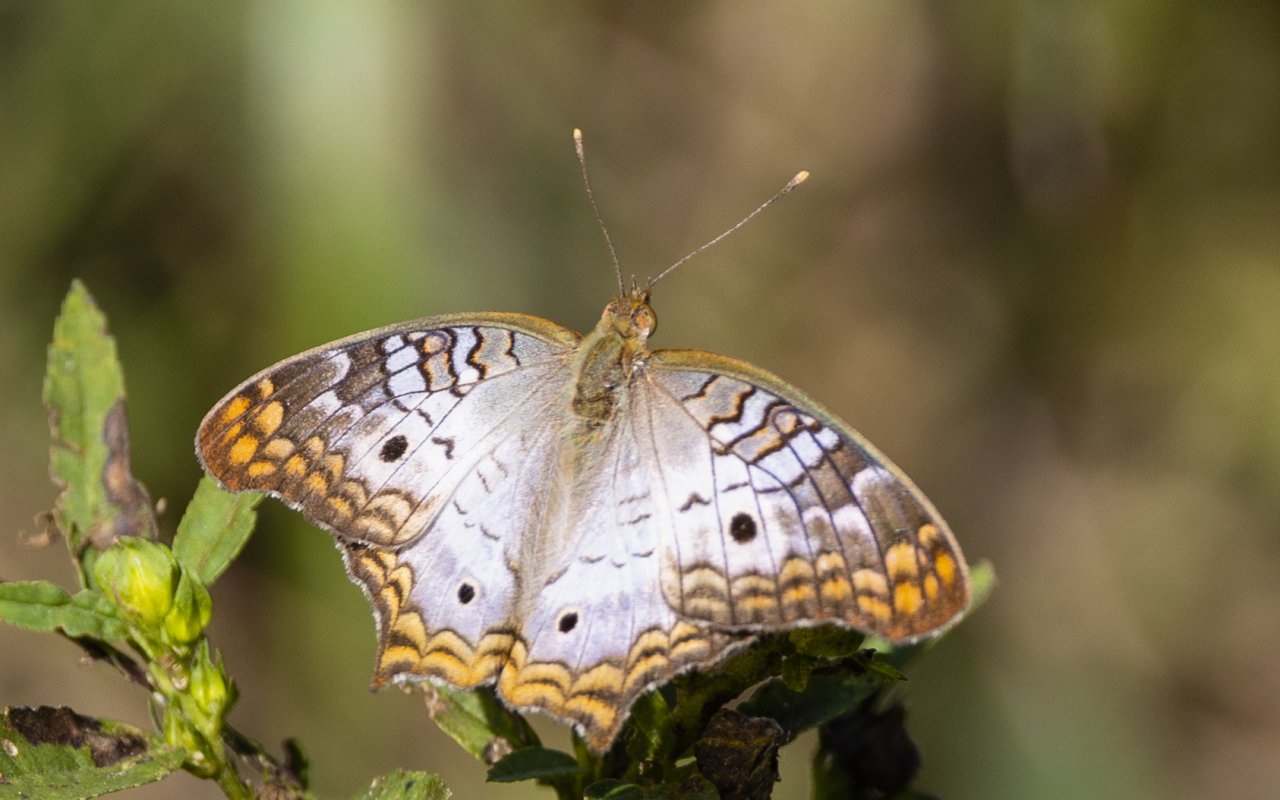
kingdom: Animalia
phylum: Arthropoda
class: Insecta
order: Lepidoptera
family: Nymphalidae
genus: Anartia
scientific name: Anartia jatrophae
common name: White Peacock
